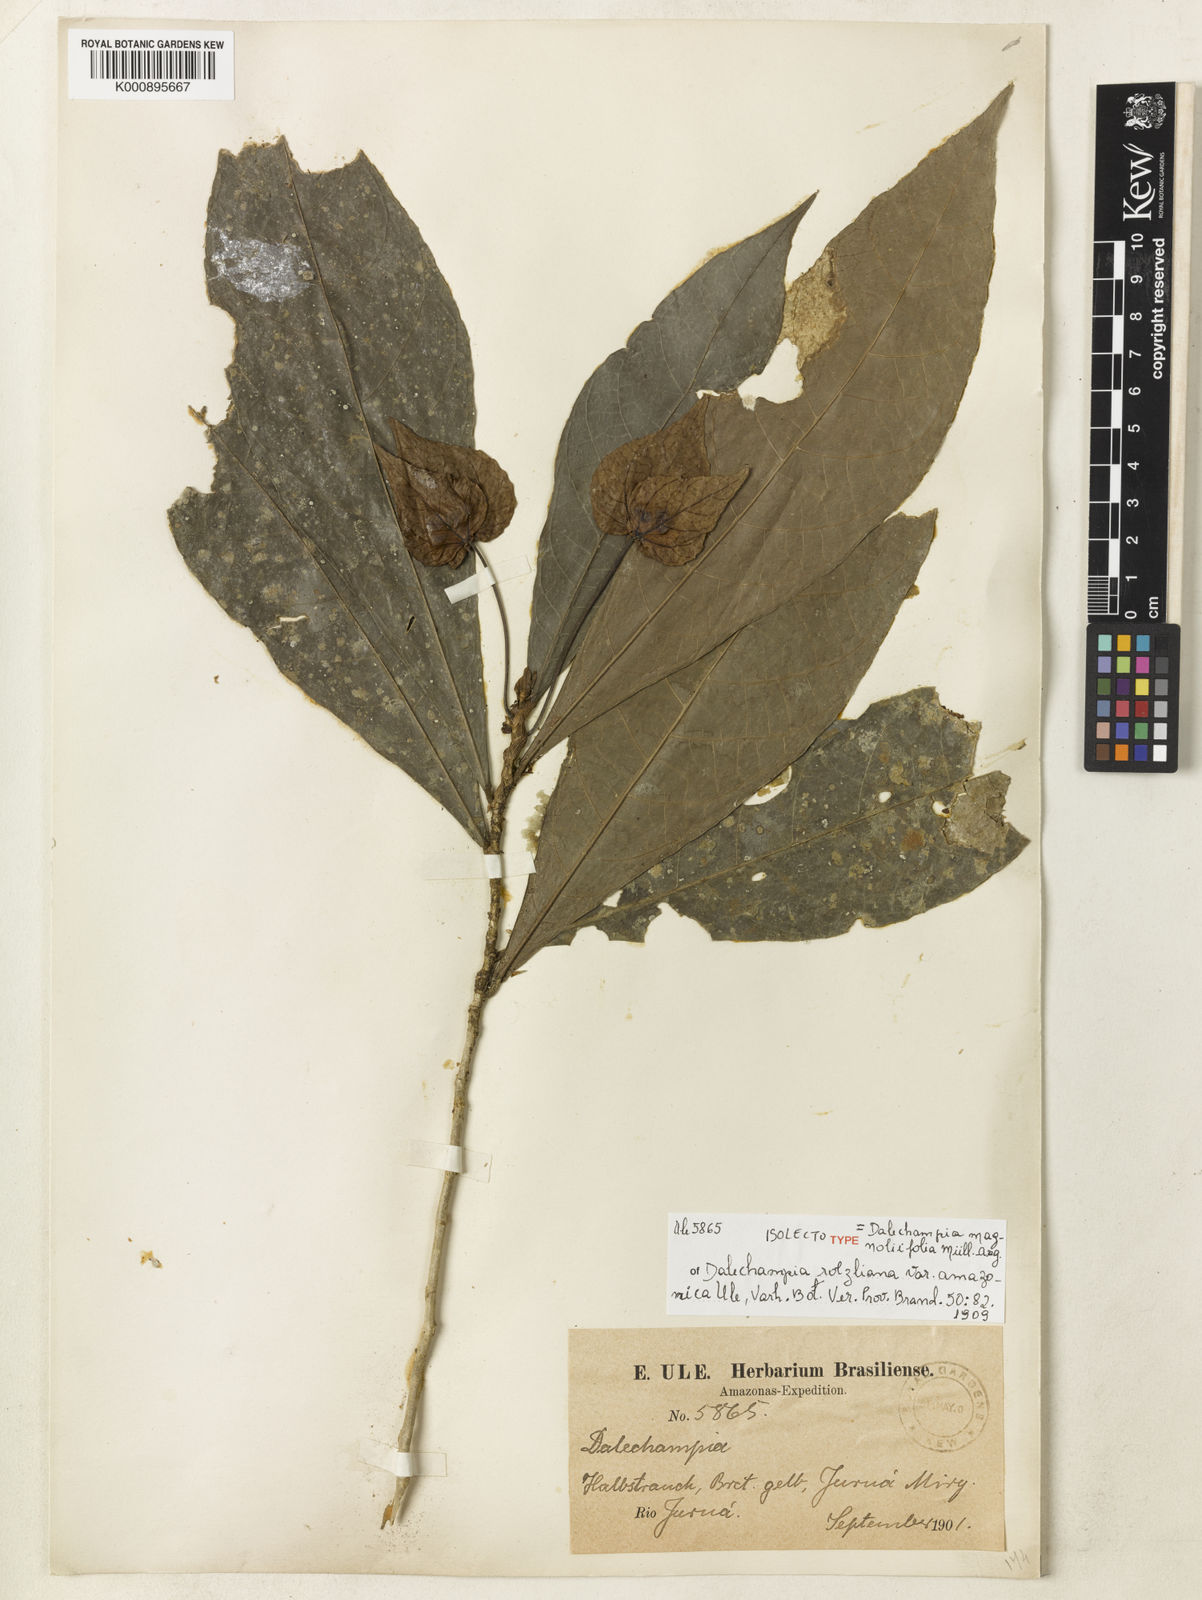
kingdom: Plantae
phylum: Tracheophyta
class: Magnoliopsida
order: Malpighiales
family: Euphorbiaceae
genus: Dalechampia
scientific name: Dalechampia
